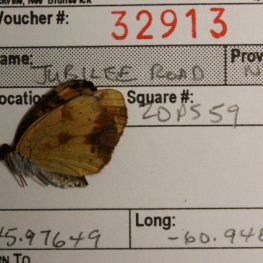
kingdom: Animalia
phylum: Arthropoda
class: Insecta
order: Lepidoptera
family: Nymphalidae
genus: Phyciodes
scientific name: Phyciodes tharos
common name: Northern Crescent
